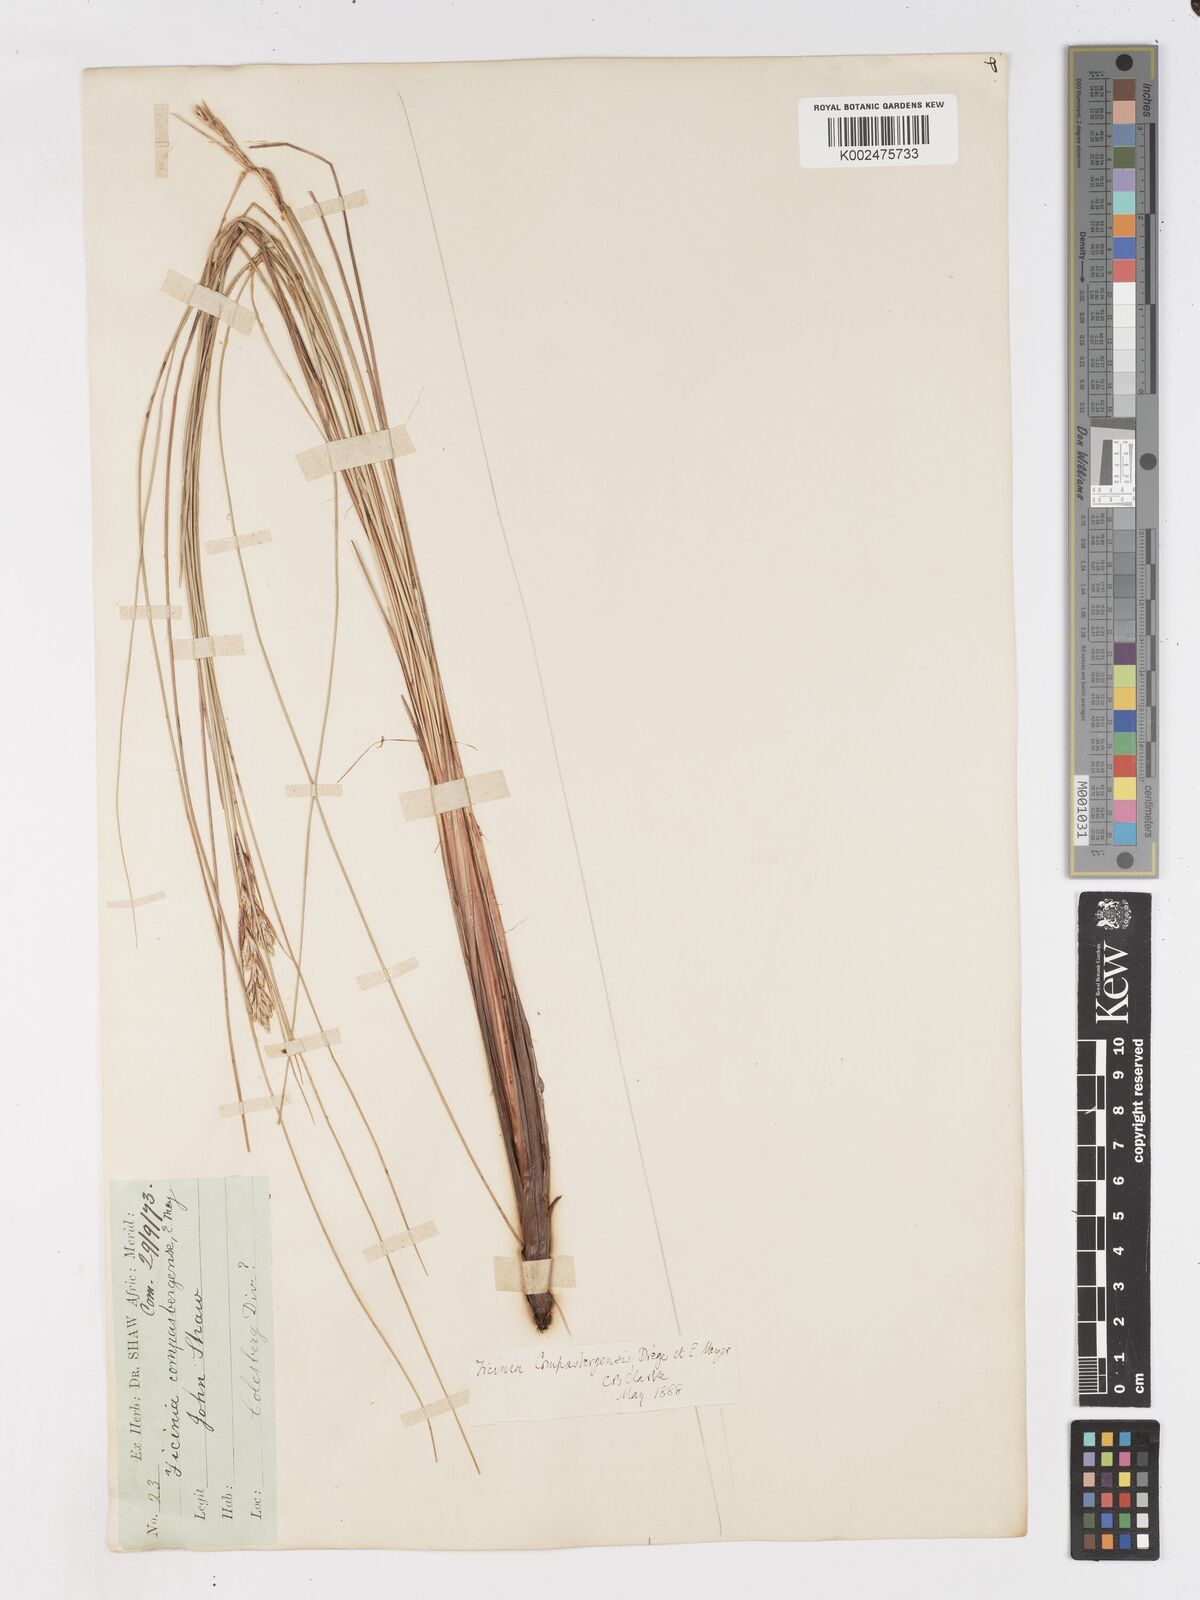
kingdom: Plantae
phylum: Tracheophyta
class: Liliopsida
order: Poales
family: Cyperaceae
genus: Ficinia
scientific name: Ficinia compasbergensis
